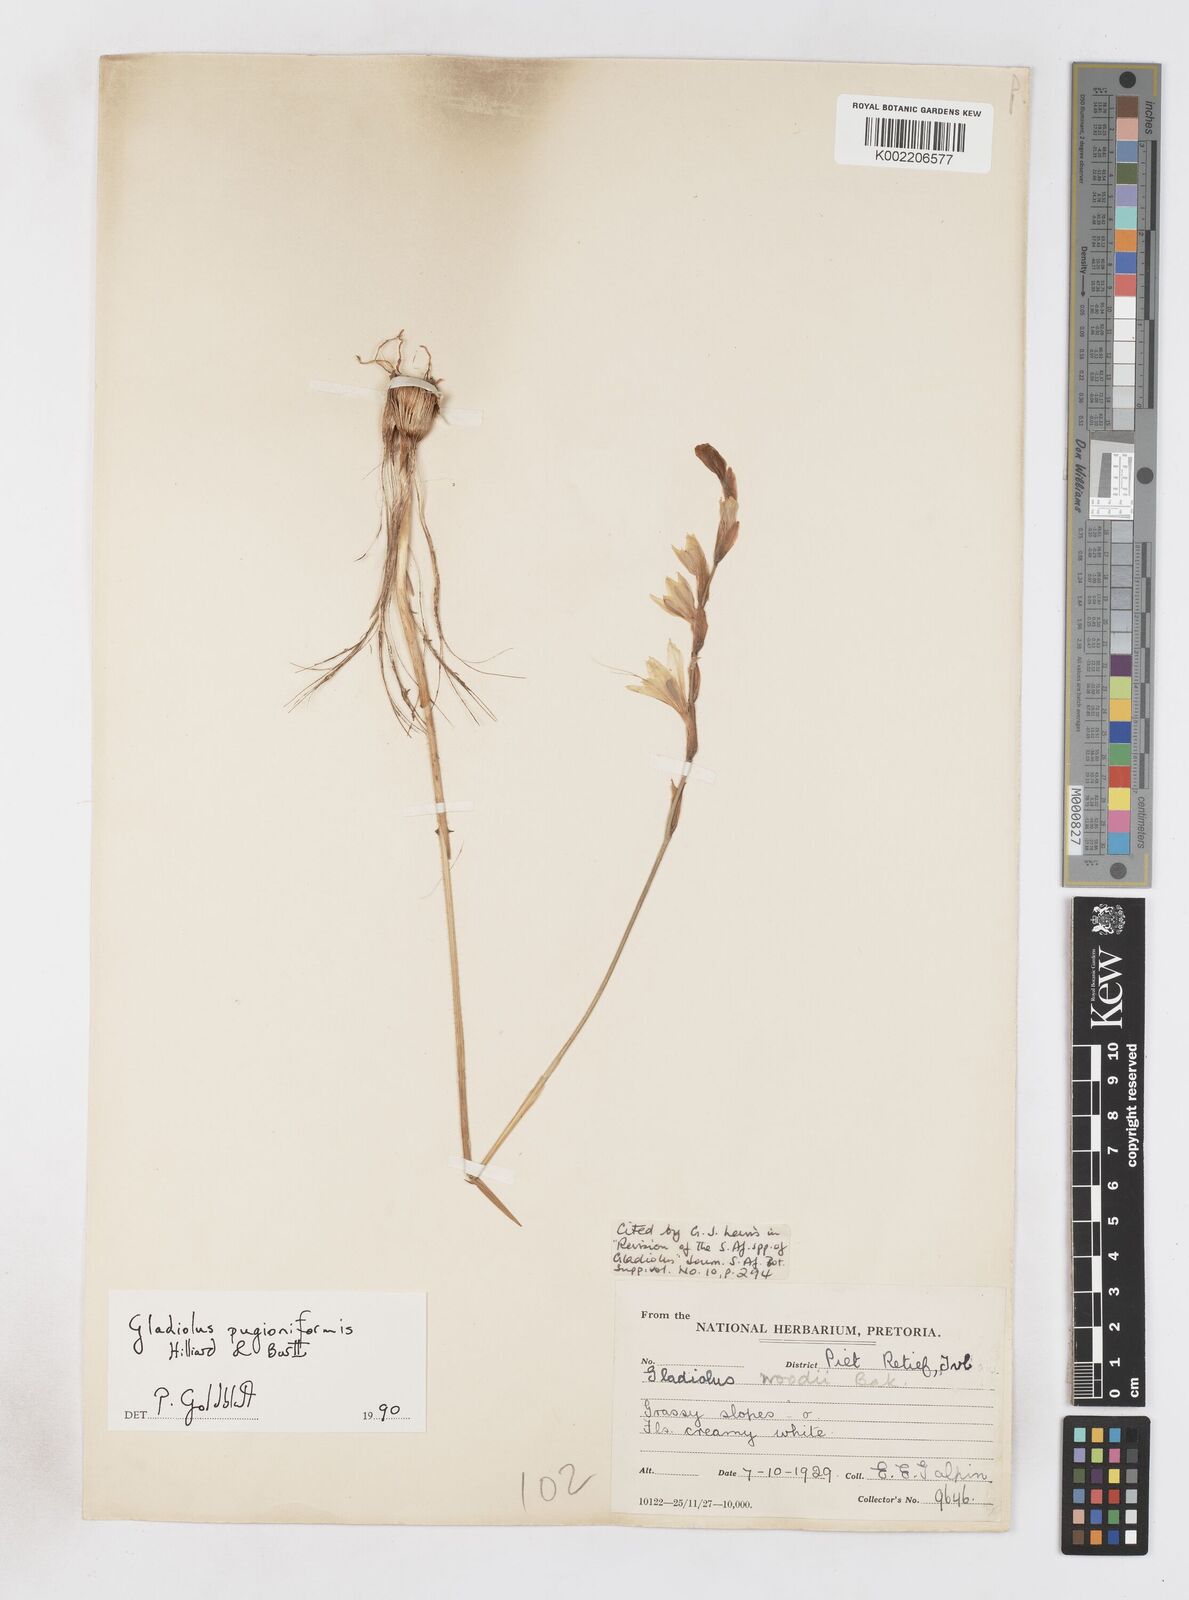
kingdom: Plantae
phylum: Tracheophyta
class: Liliopsida
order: Asparagales
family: Iridaceae
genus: Gladiolus
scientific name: Gladiolus pubigerus
